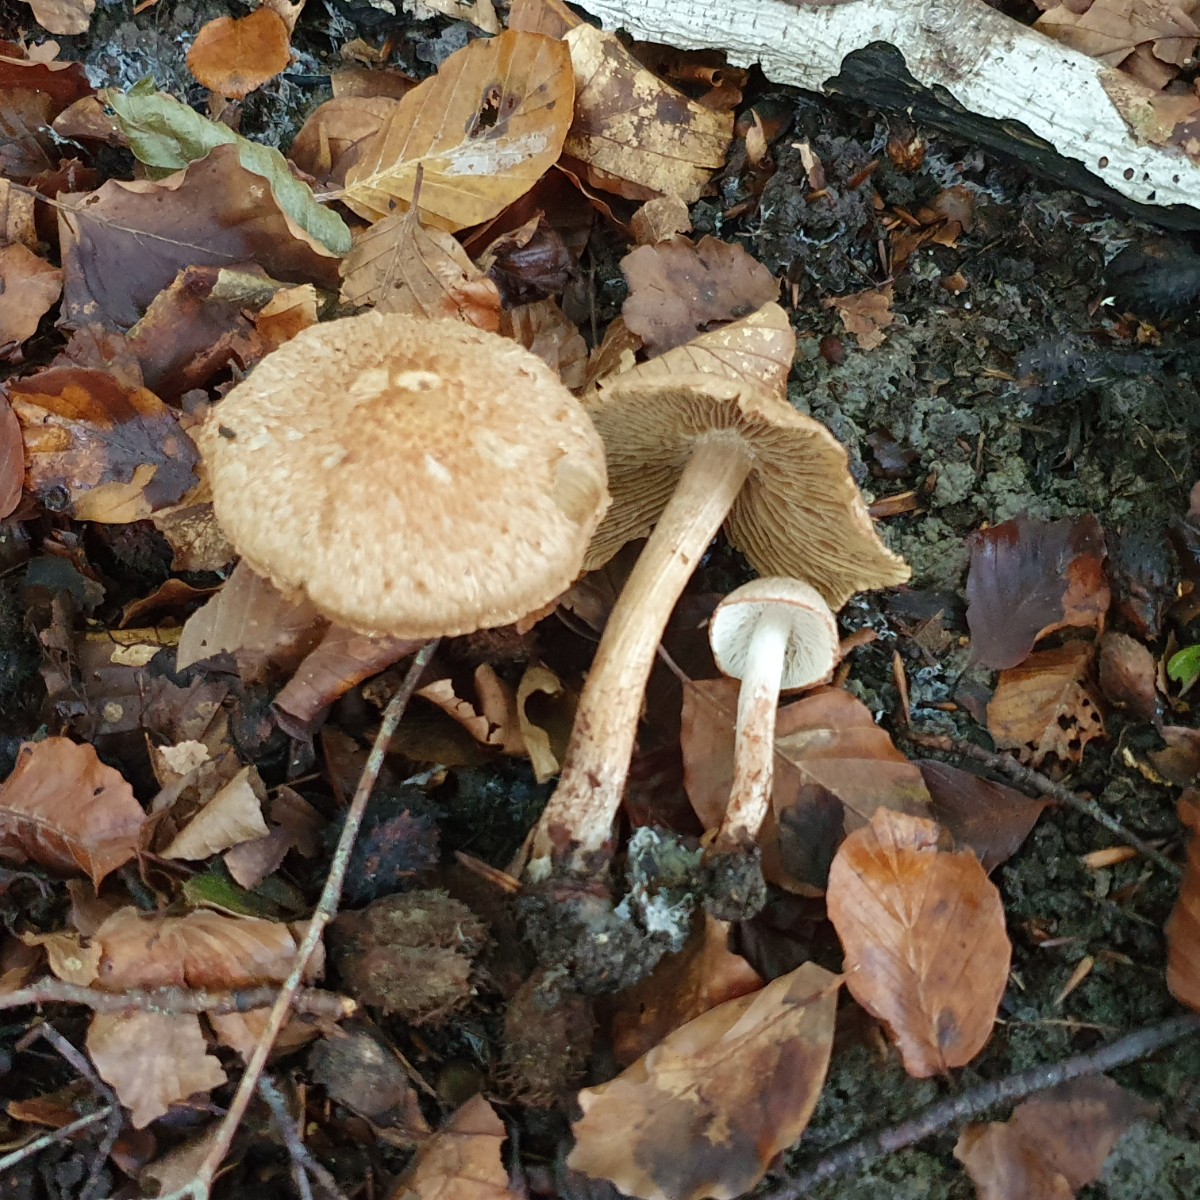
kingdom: Fungi
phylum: Basidiomycota
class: Agaricomycetes
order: Agaricales
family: Inocybaceae
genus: Inosperma
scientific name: Inosperma bongardii
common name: Bongards trævlhat
